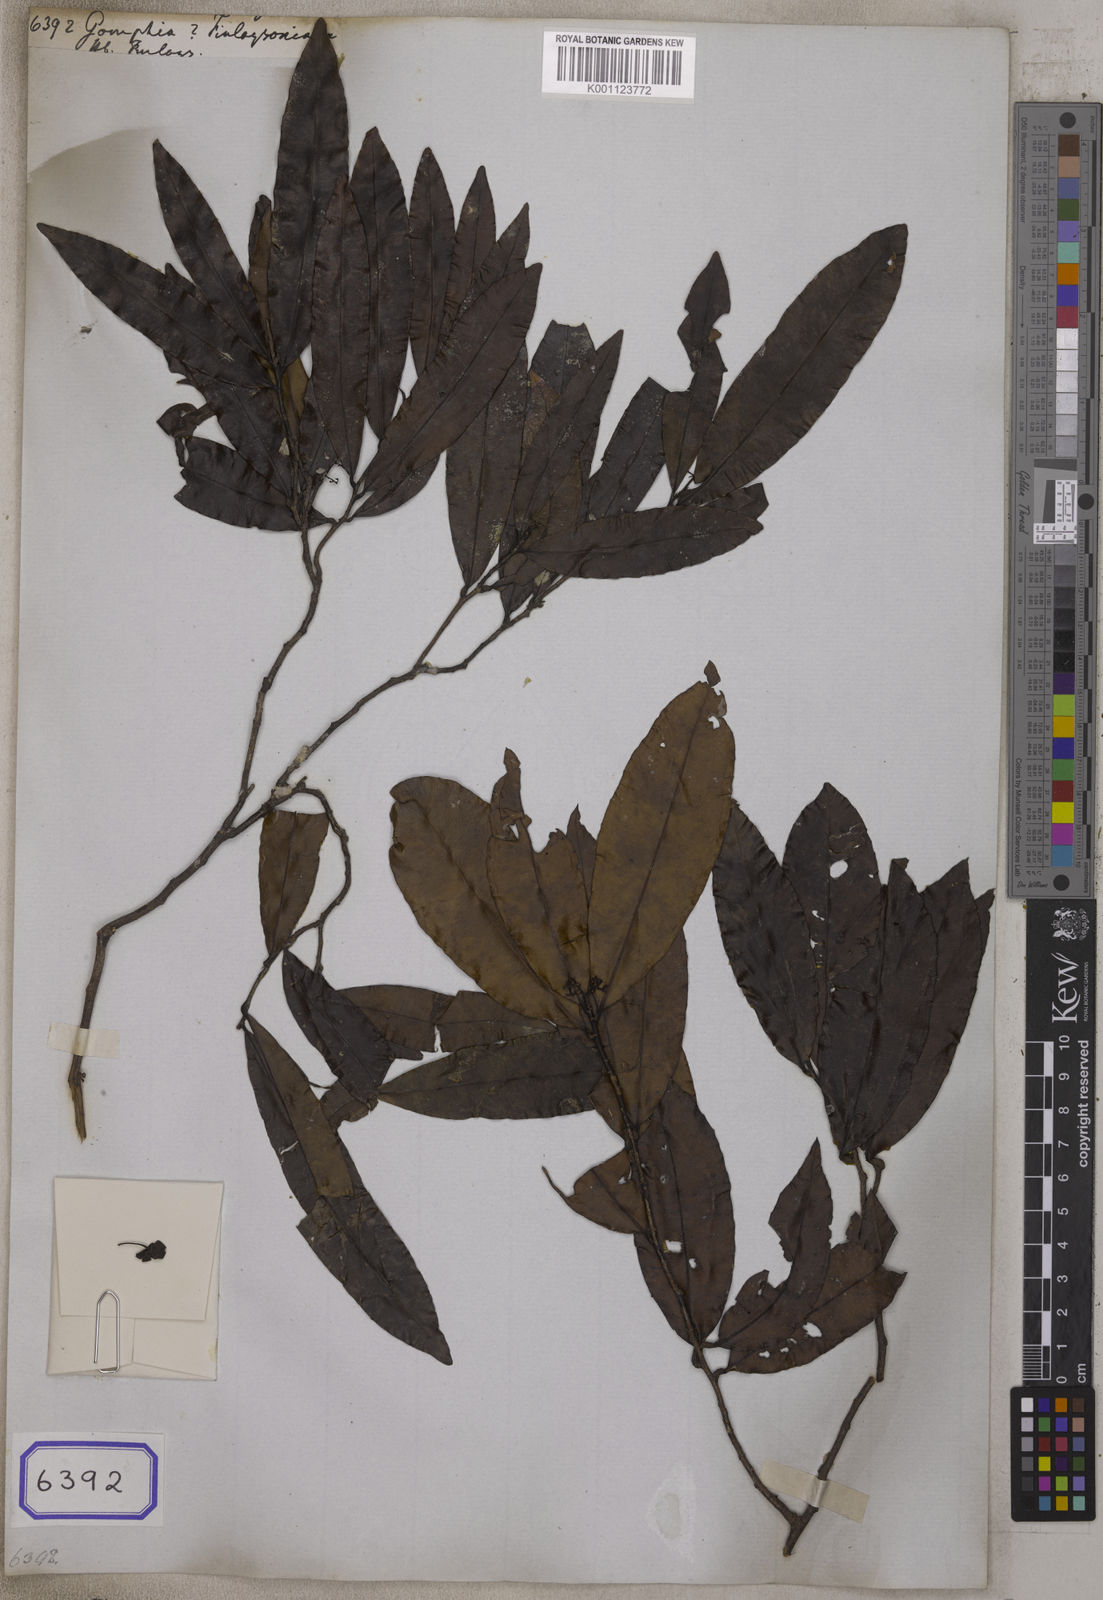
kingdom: Plantae
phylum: Tracheophyta
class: Magnoliopsida
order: Malpighiales
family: Ochnaceae
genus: Gomphia
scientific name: Gomphia
